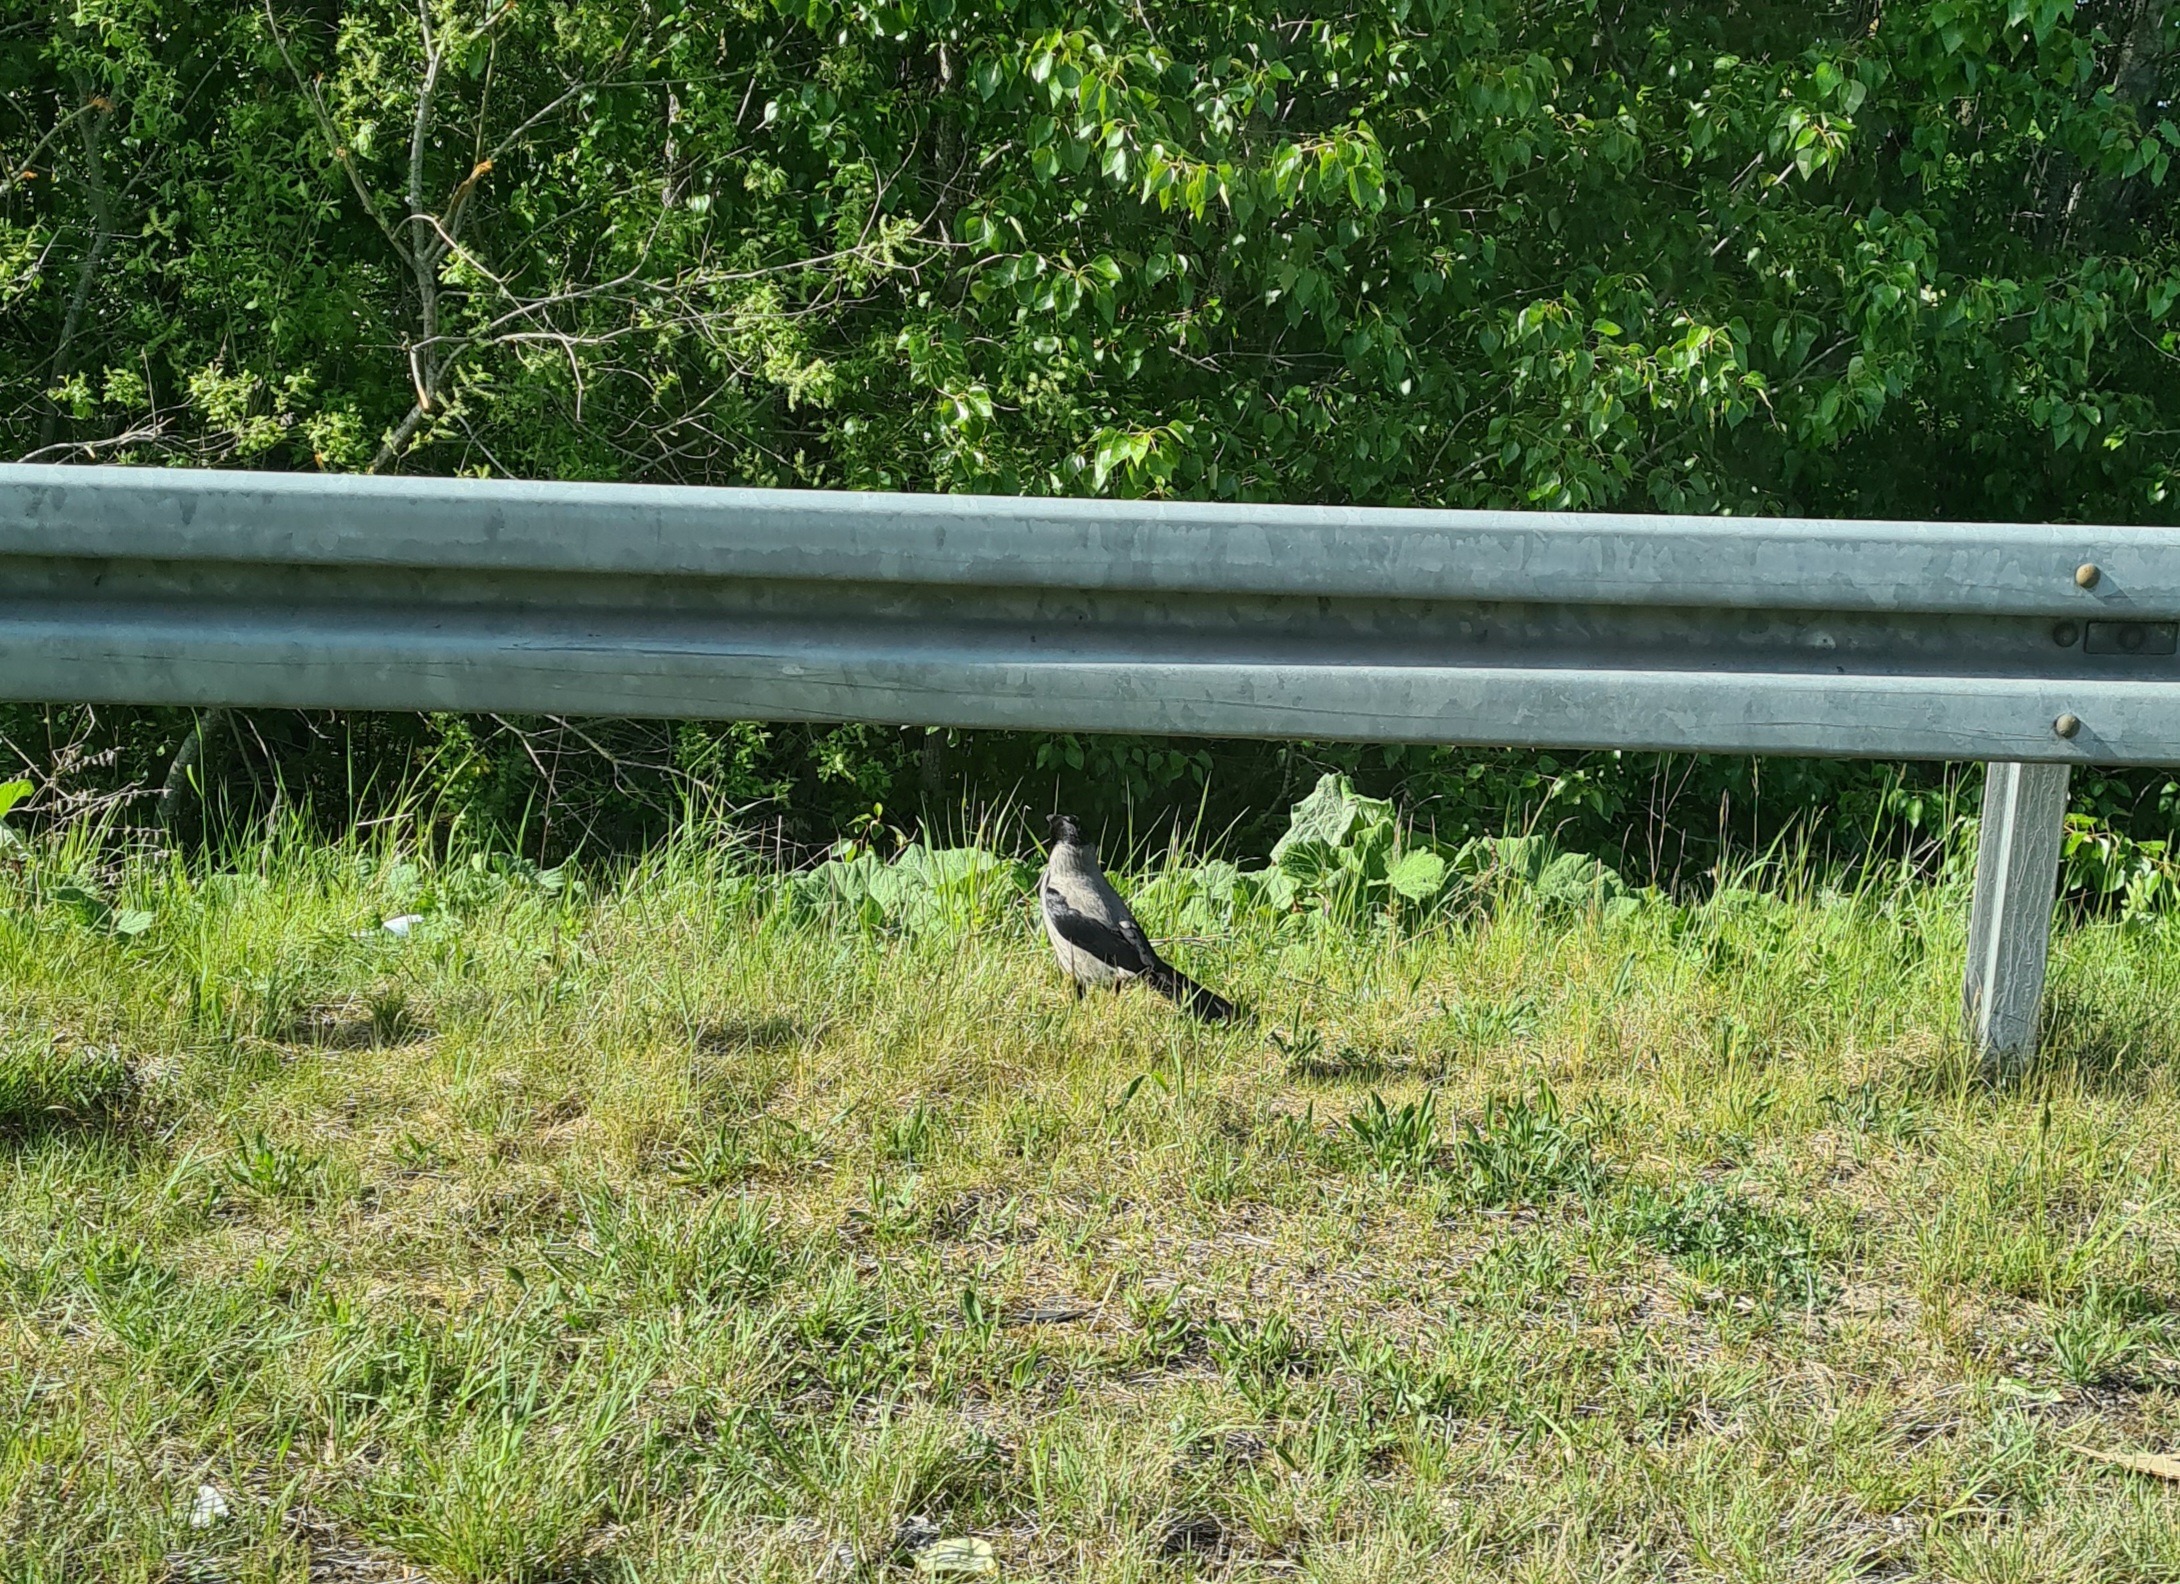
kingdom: Animalia
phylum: Chordata
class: Aves
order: Passeriformes
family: Corvidae
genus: Corvus
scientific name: Corvus cornix
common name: Gråkrage
